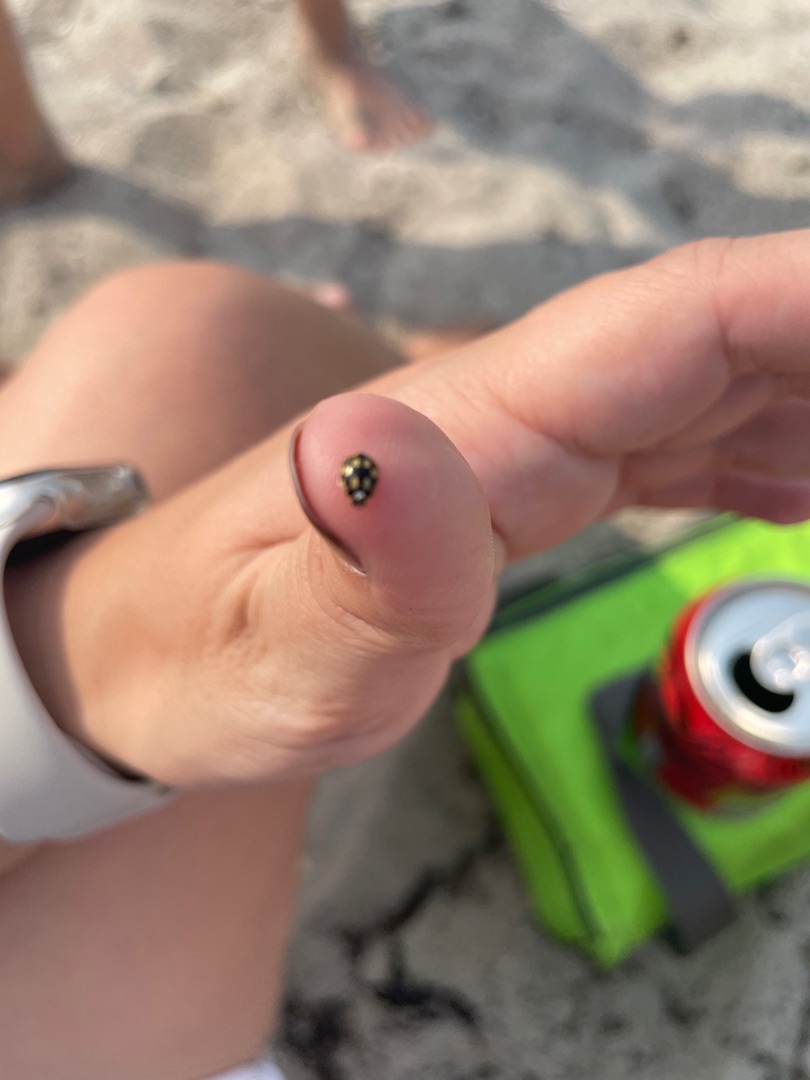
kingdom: Animalia
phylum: Arthropoda
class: Insecta
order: Coleoptera
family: Coccinellidae
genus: Propylaea
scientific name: Propylaea quatuordecimpunctata
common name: Skakbræt
